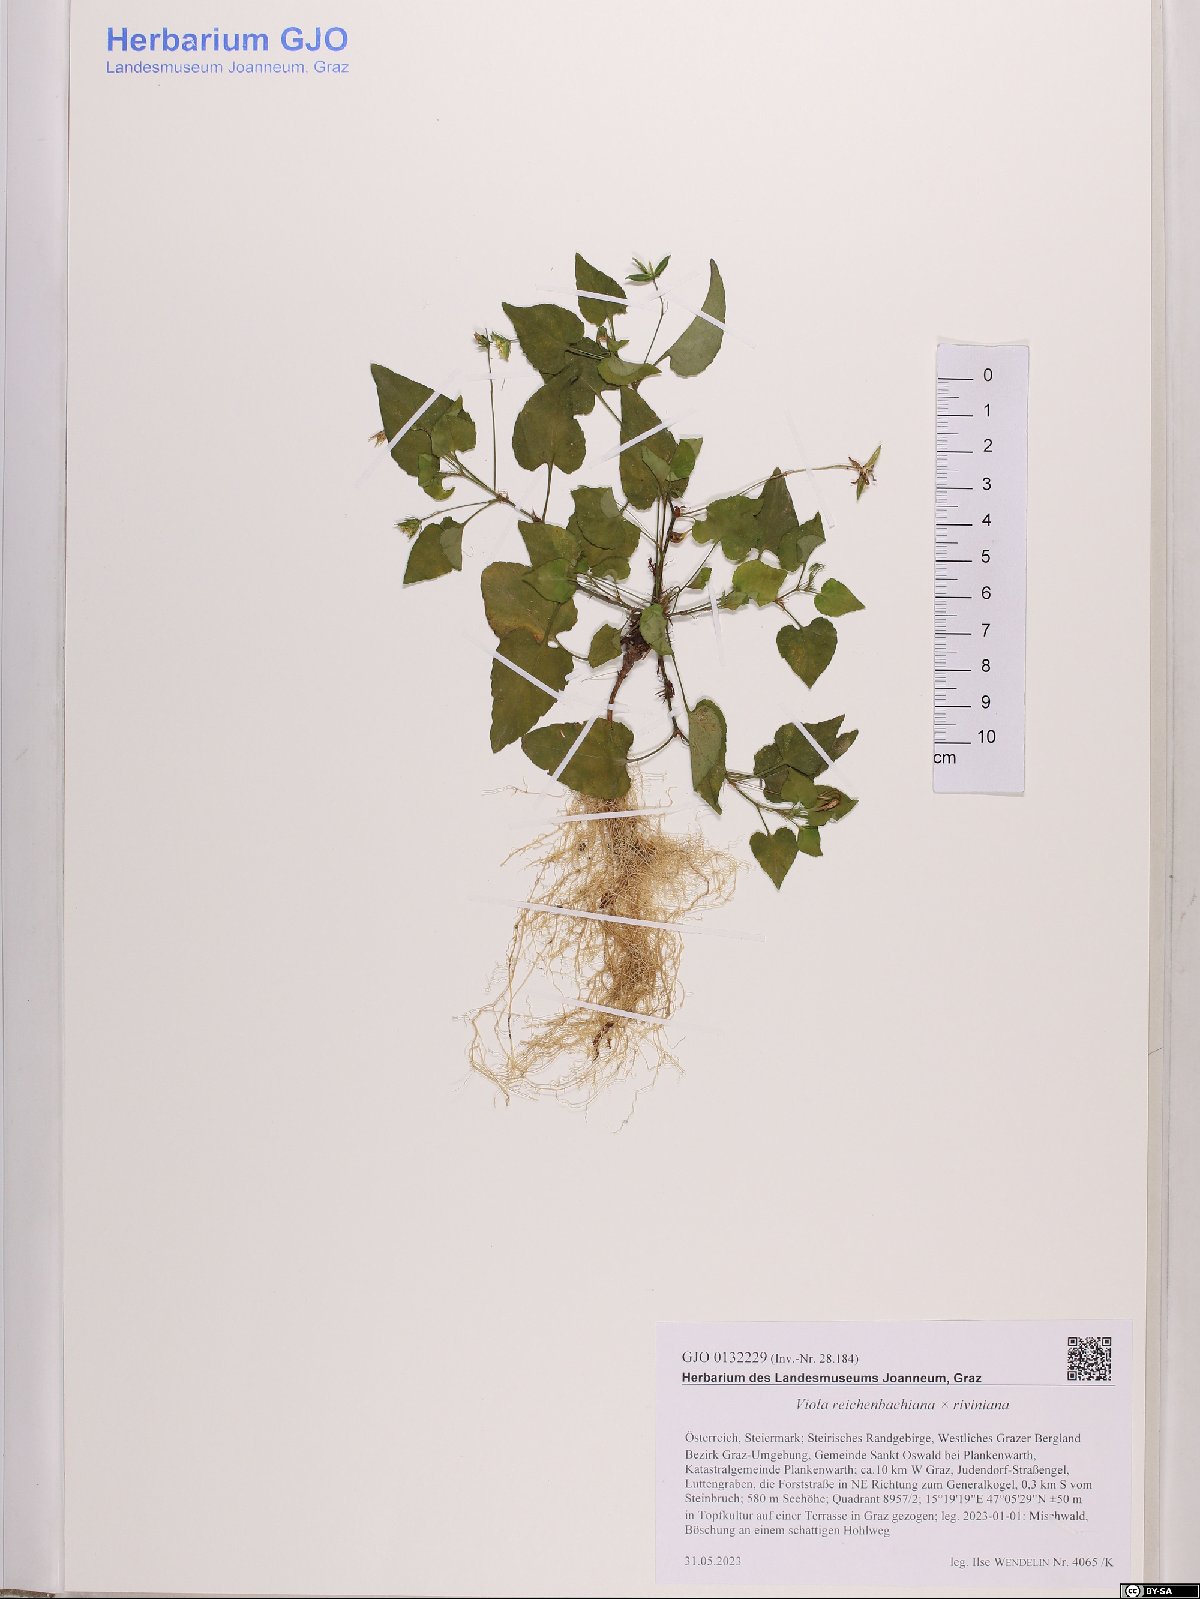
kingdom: Plantae
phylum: Tracheophyta
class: Magnoliopsida
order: Malpighiales
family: Violaceae
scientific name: Violaceae
